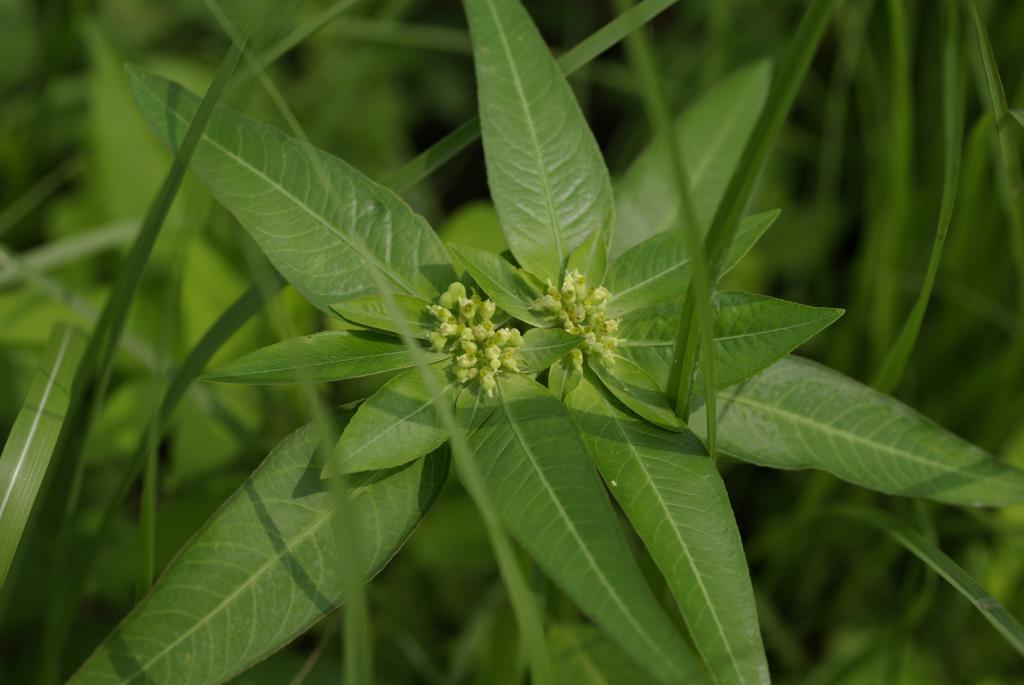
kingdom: Plantae
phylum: Tracheophyta
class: Magnoliopsida
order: Malpighiales
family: Euphorbiaceae
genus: Euphorbia
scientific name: Euphorbia heterophylla
